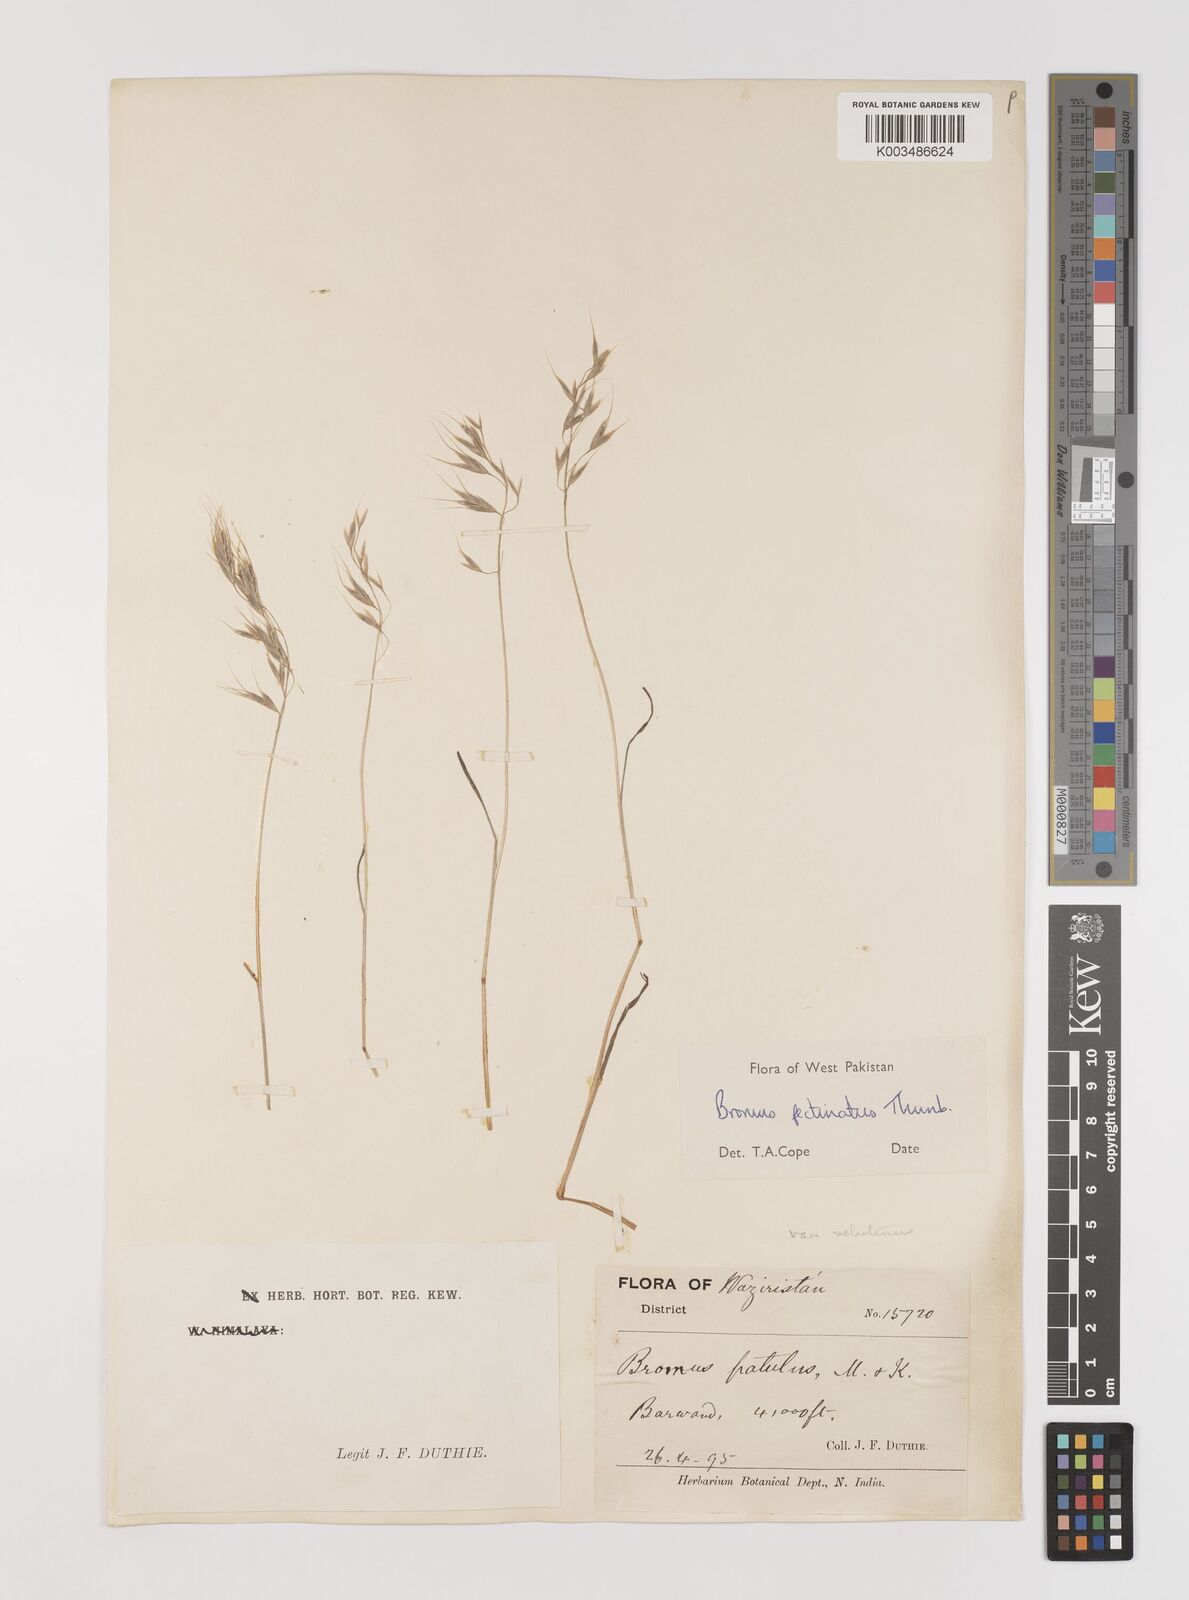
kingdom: Plantae
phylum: Tracheophyta
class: Liliopsida
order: Poales
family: Poaceae
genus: Bromus
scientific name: Bromus pectinatus
